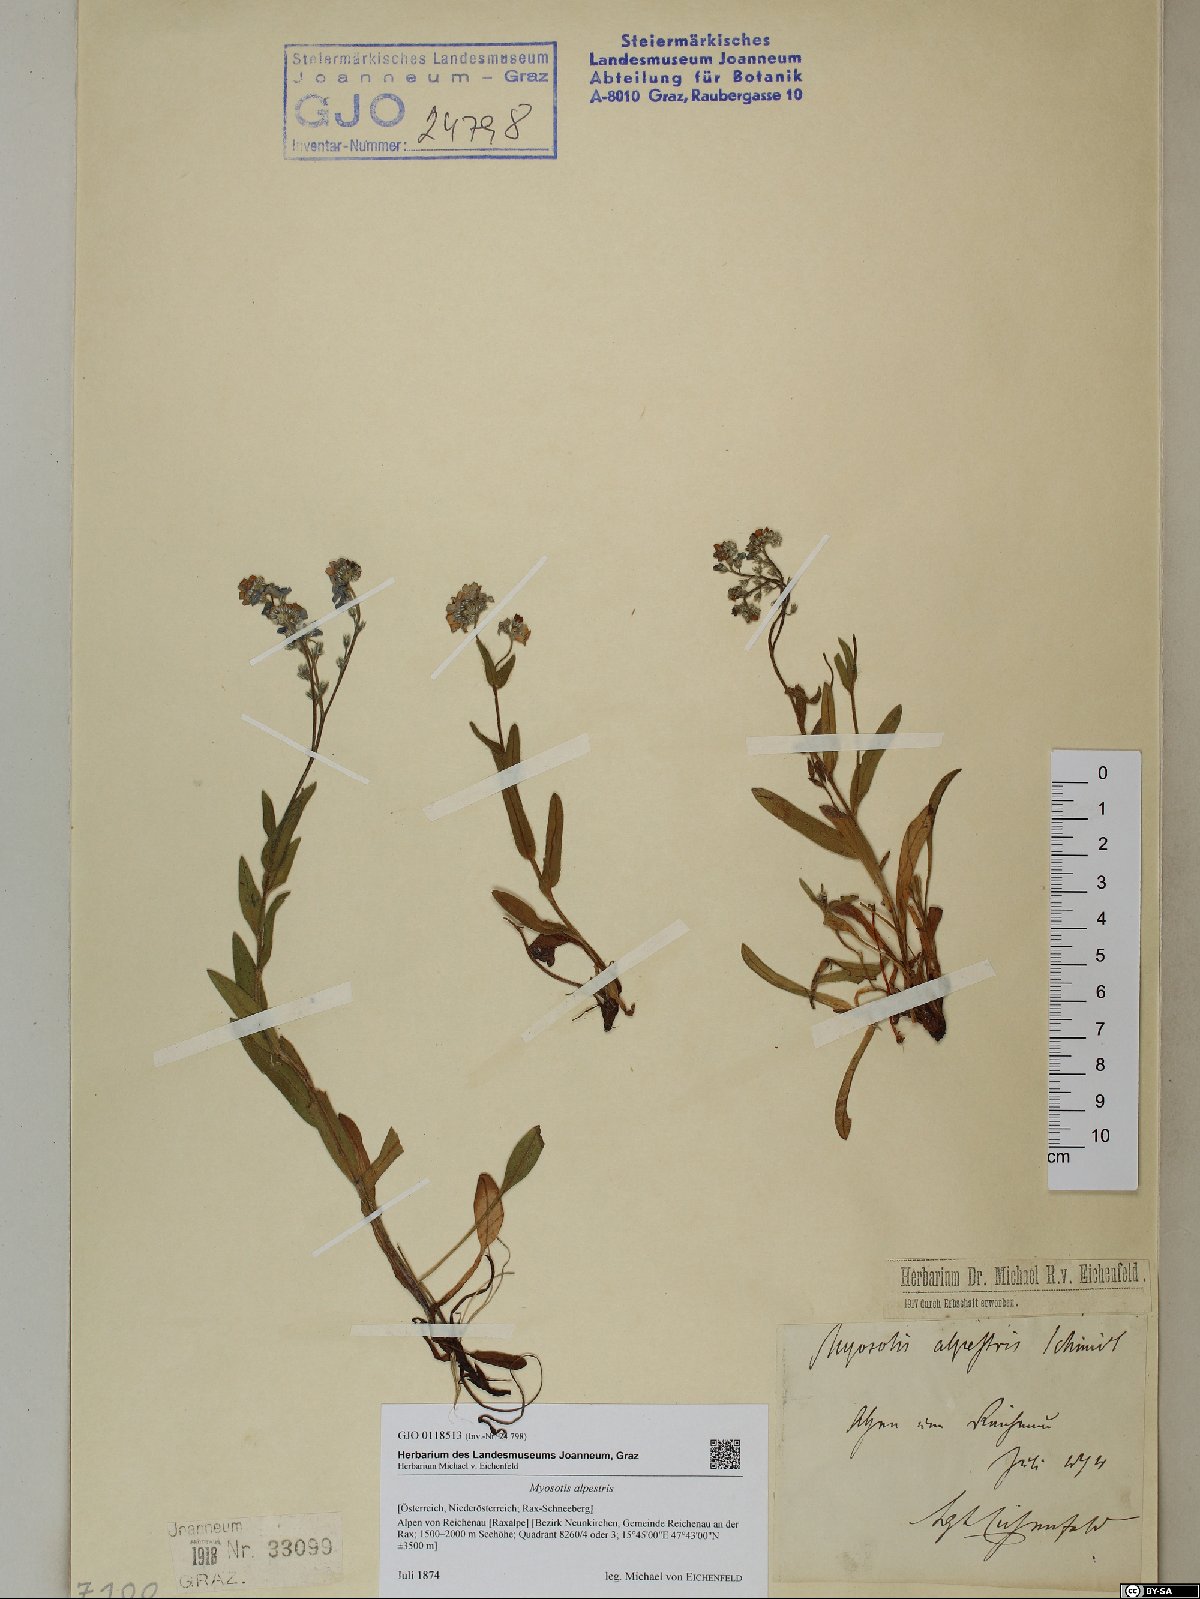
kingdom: Plantae
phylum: Tracheophyta
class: Magnoliopsida
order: Boraginales
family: Boraginaceae
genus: Myosotis
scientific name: Myosotis alpestris
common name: Alpine forget-me-not
